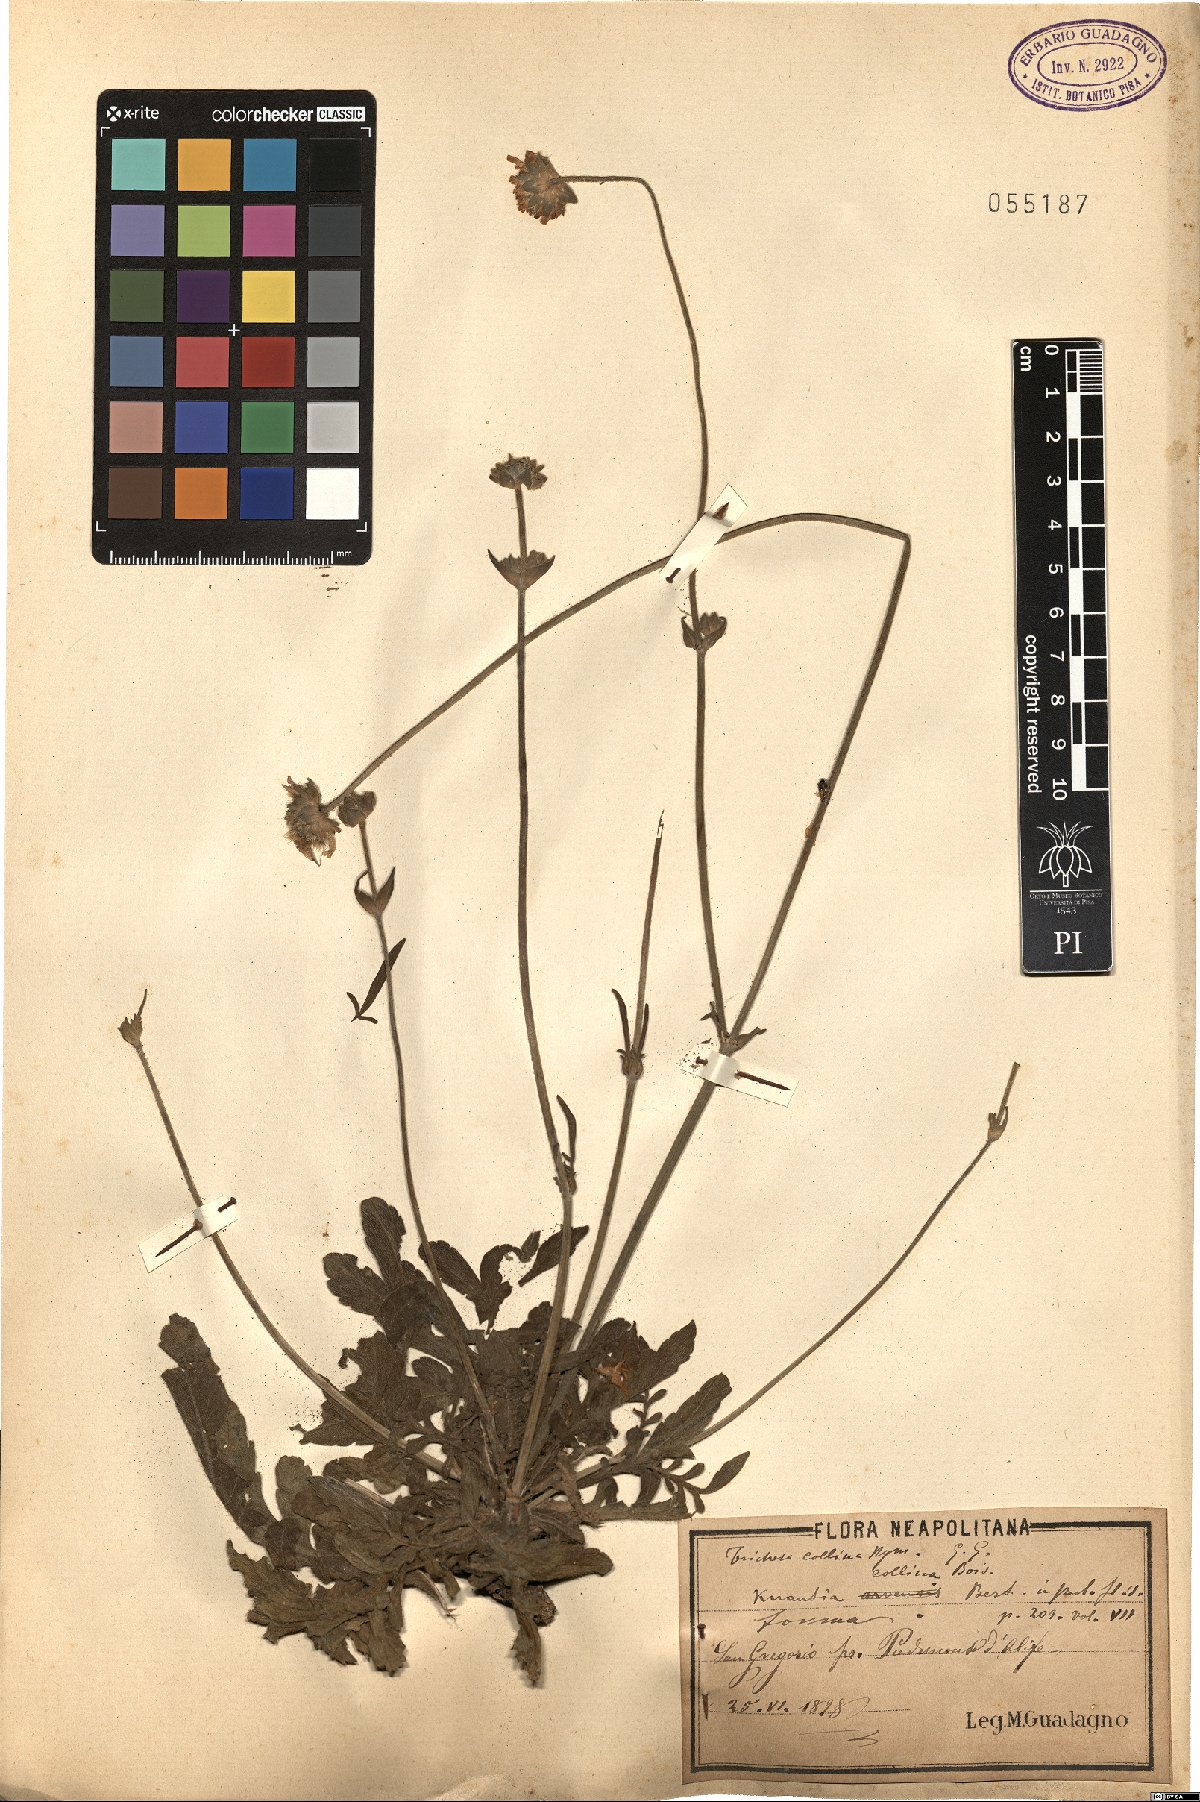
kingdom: Plantae
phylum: Tracheophyta
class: Magnoliopsida
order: Dipsacales
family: Caprifoliaceae
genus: Knautia
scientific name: Knautia collina
